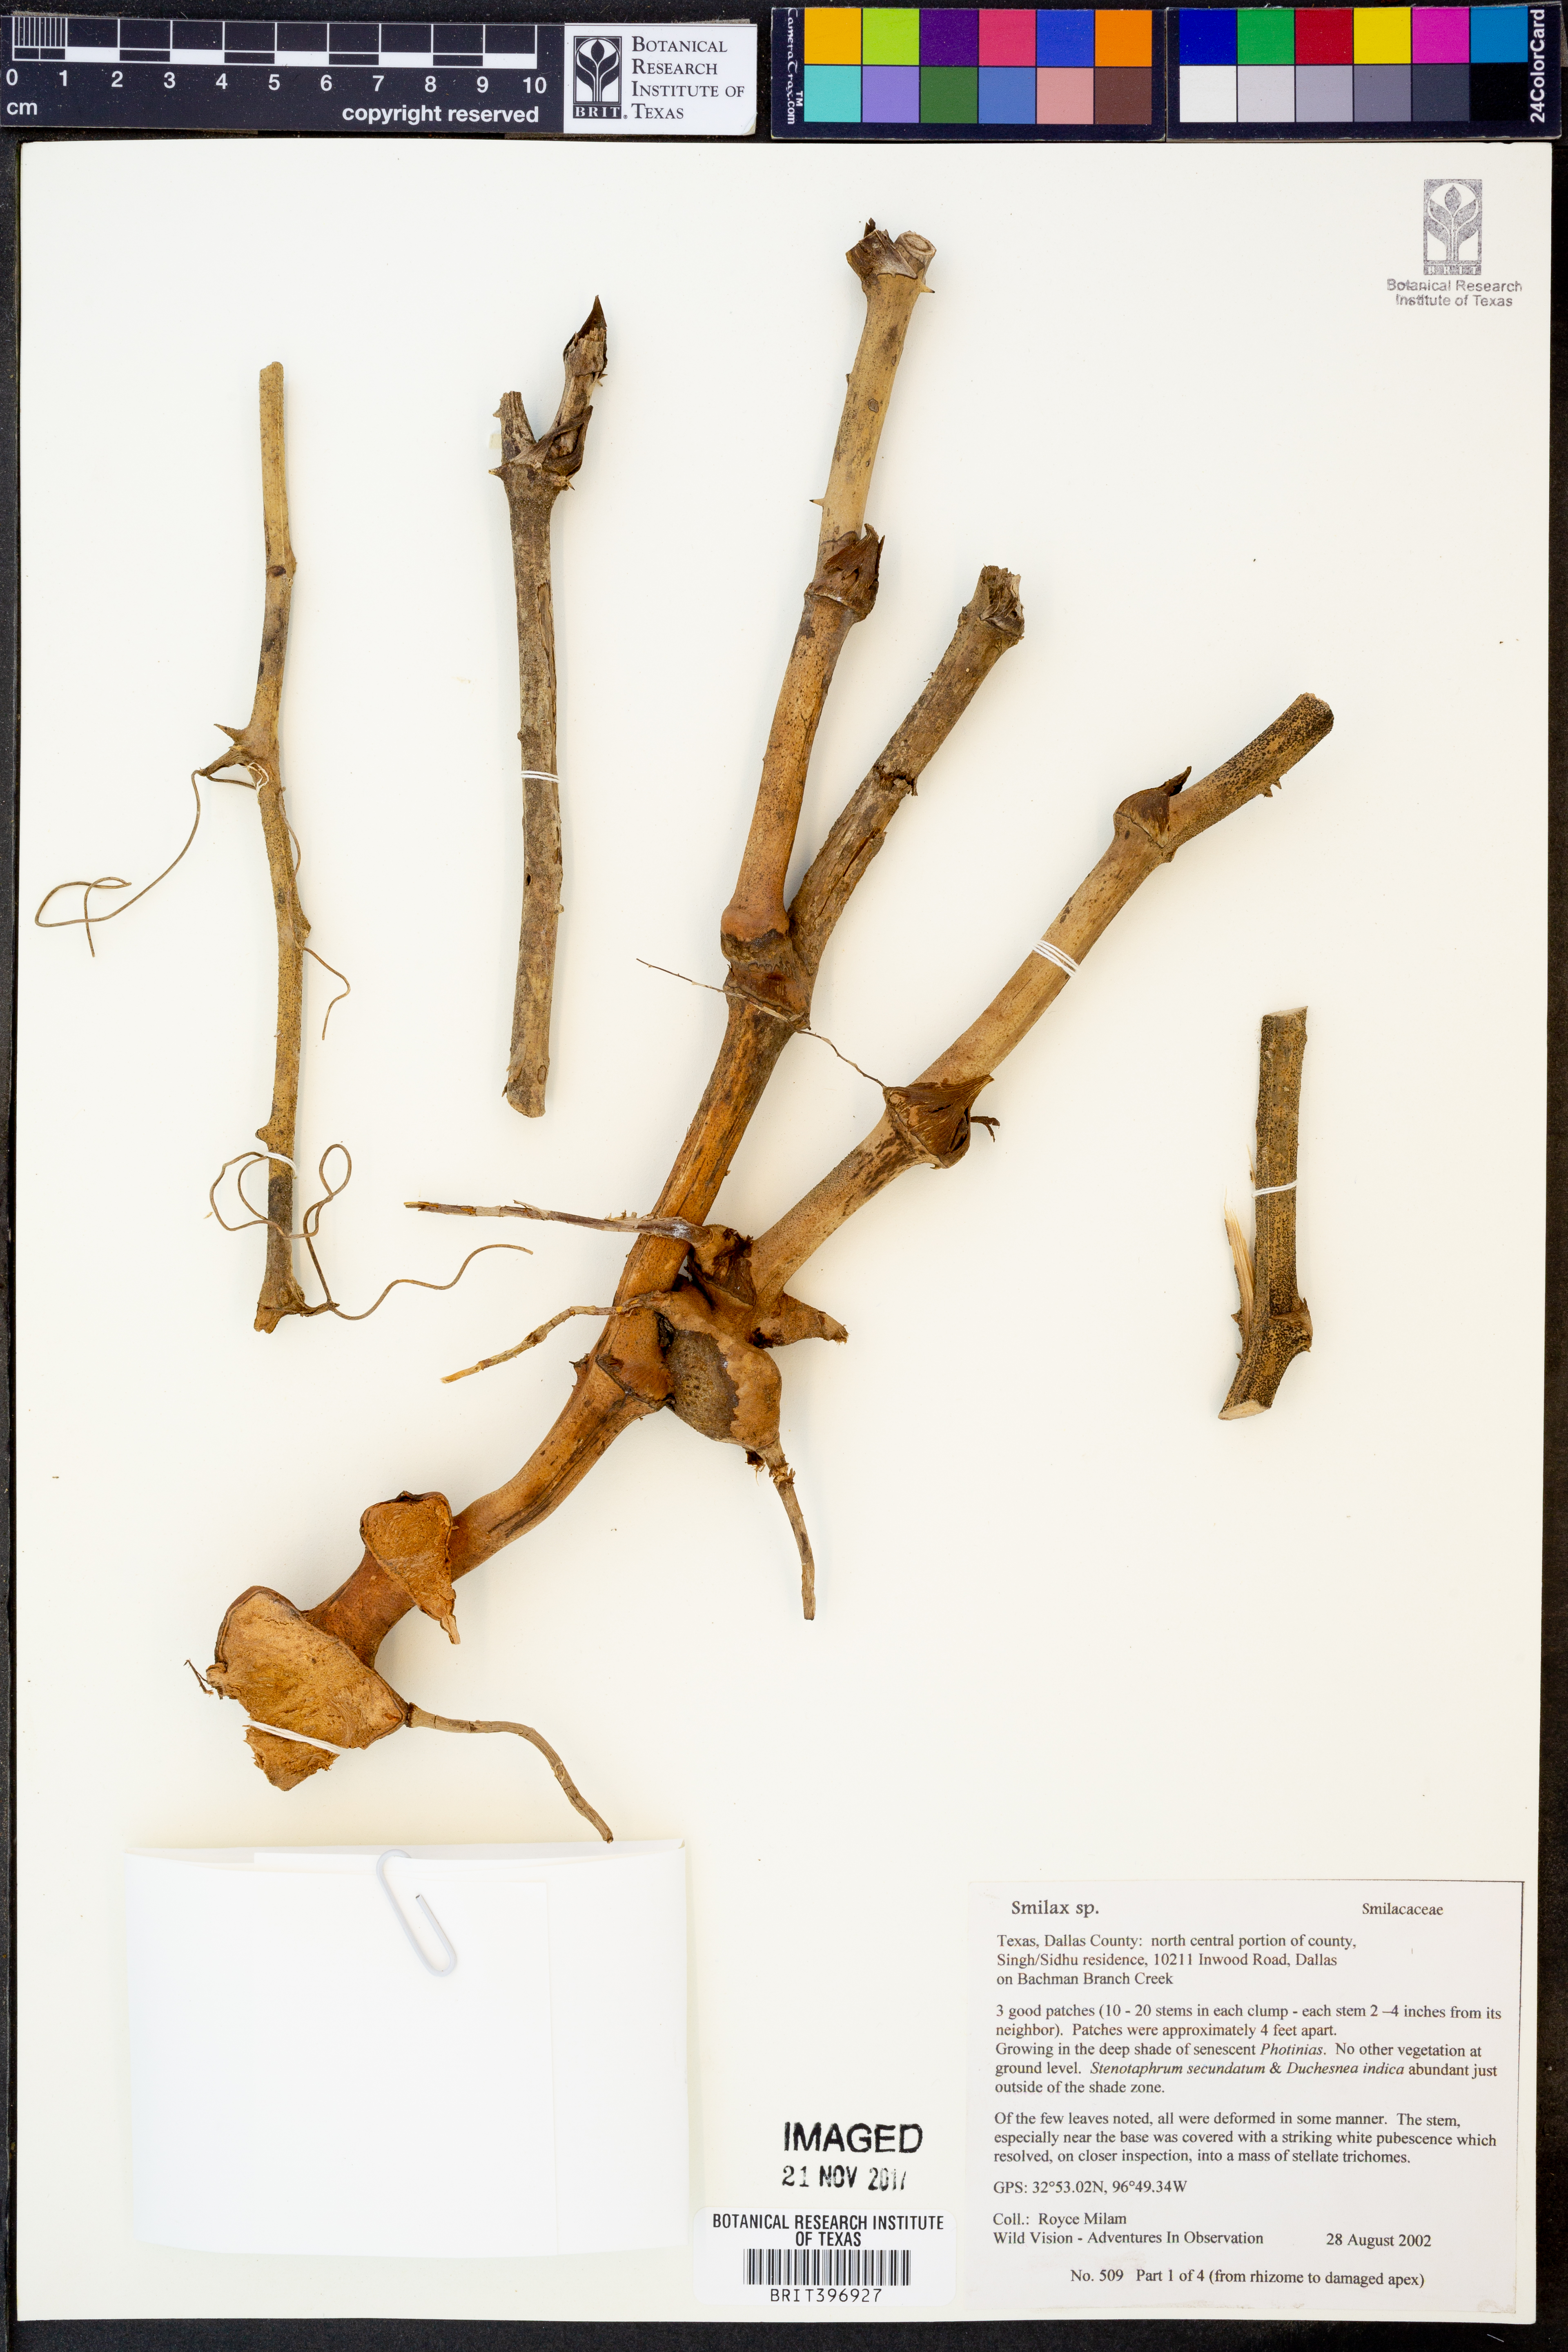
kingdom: Plantae
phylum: Tracheophyta
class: Liliopsida
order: Liliales
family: Smilacaceae
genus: Smilax
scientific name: Smilax
